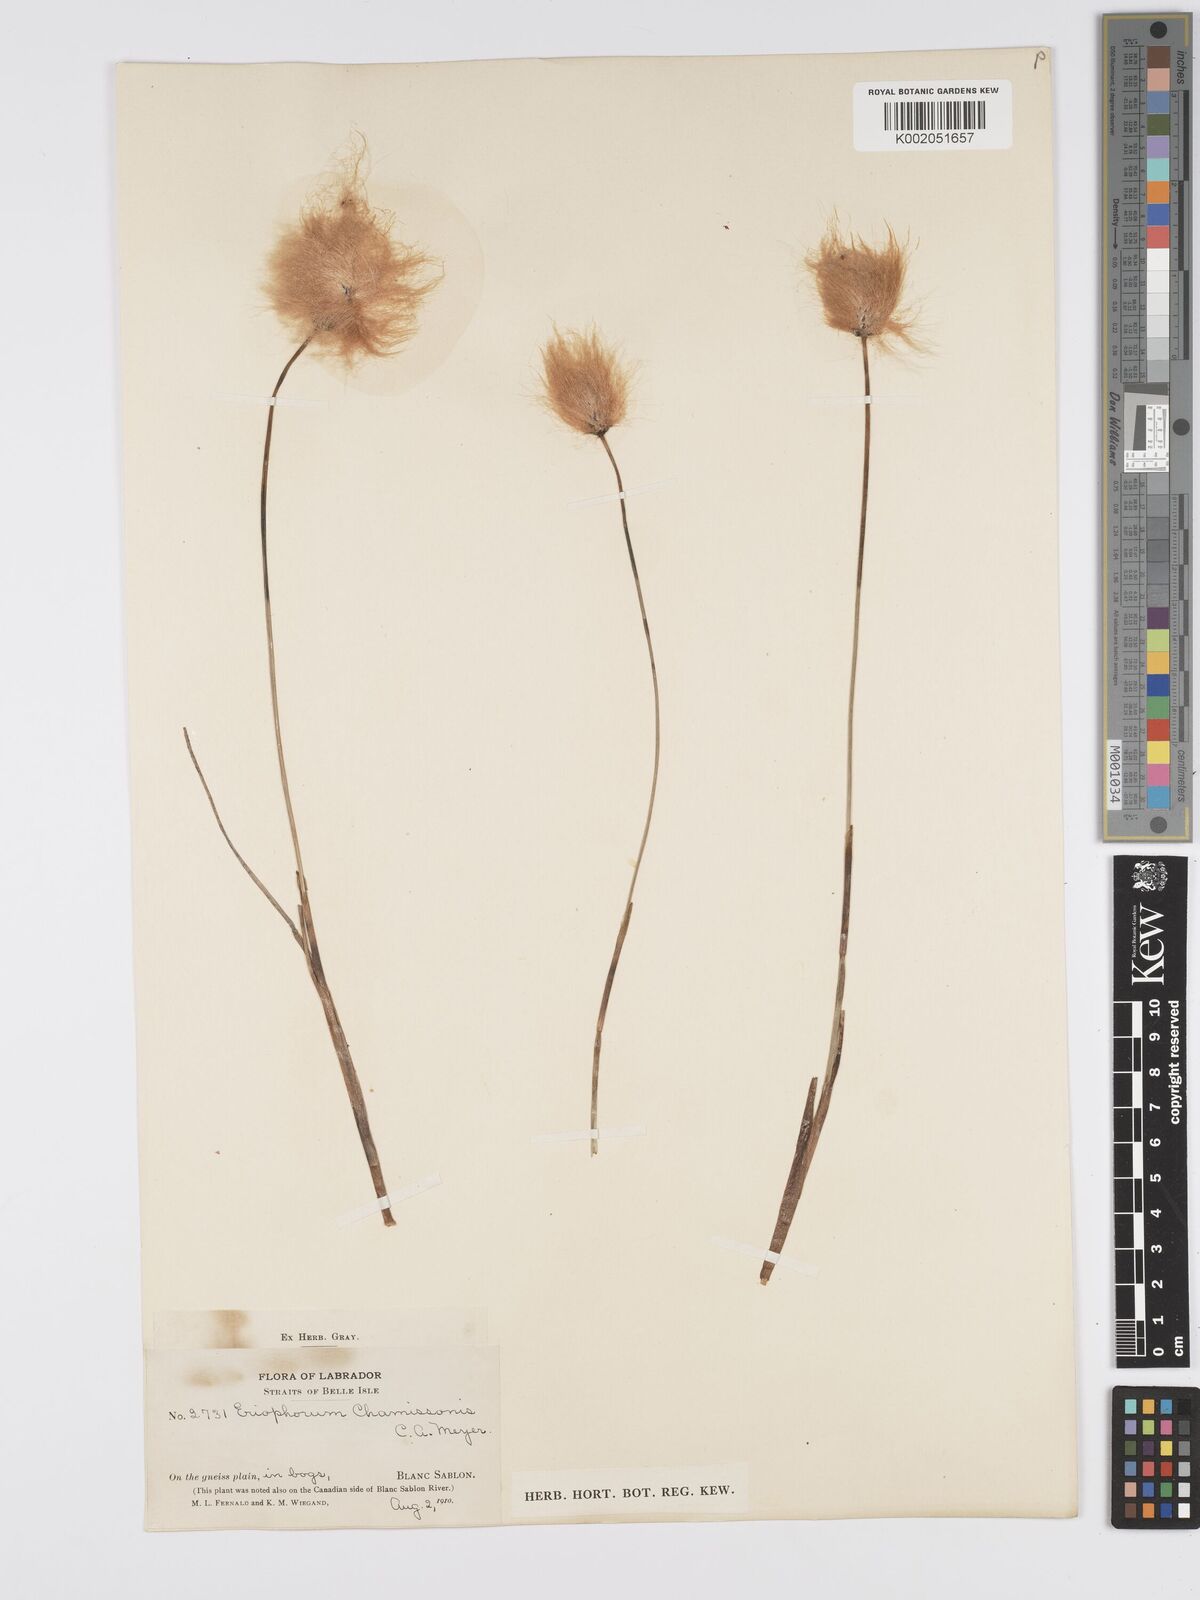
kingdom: Plantae
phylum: Tracheophyta
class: Liliopsida
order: Poales
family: Cyperaceae
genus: Eriophorum
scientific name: Eriophorum chamissonis
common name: Chamisso's cottongrass
